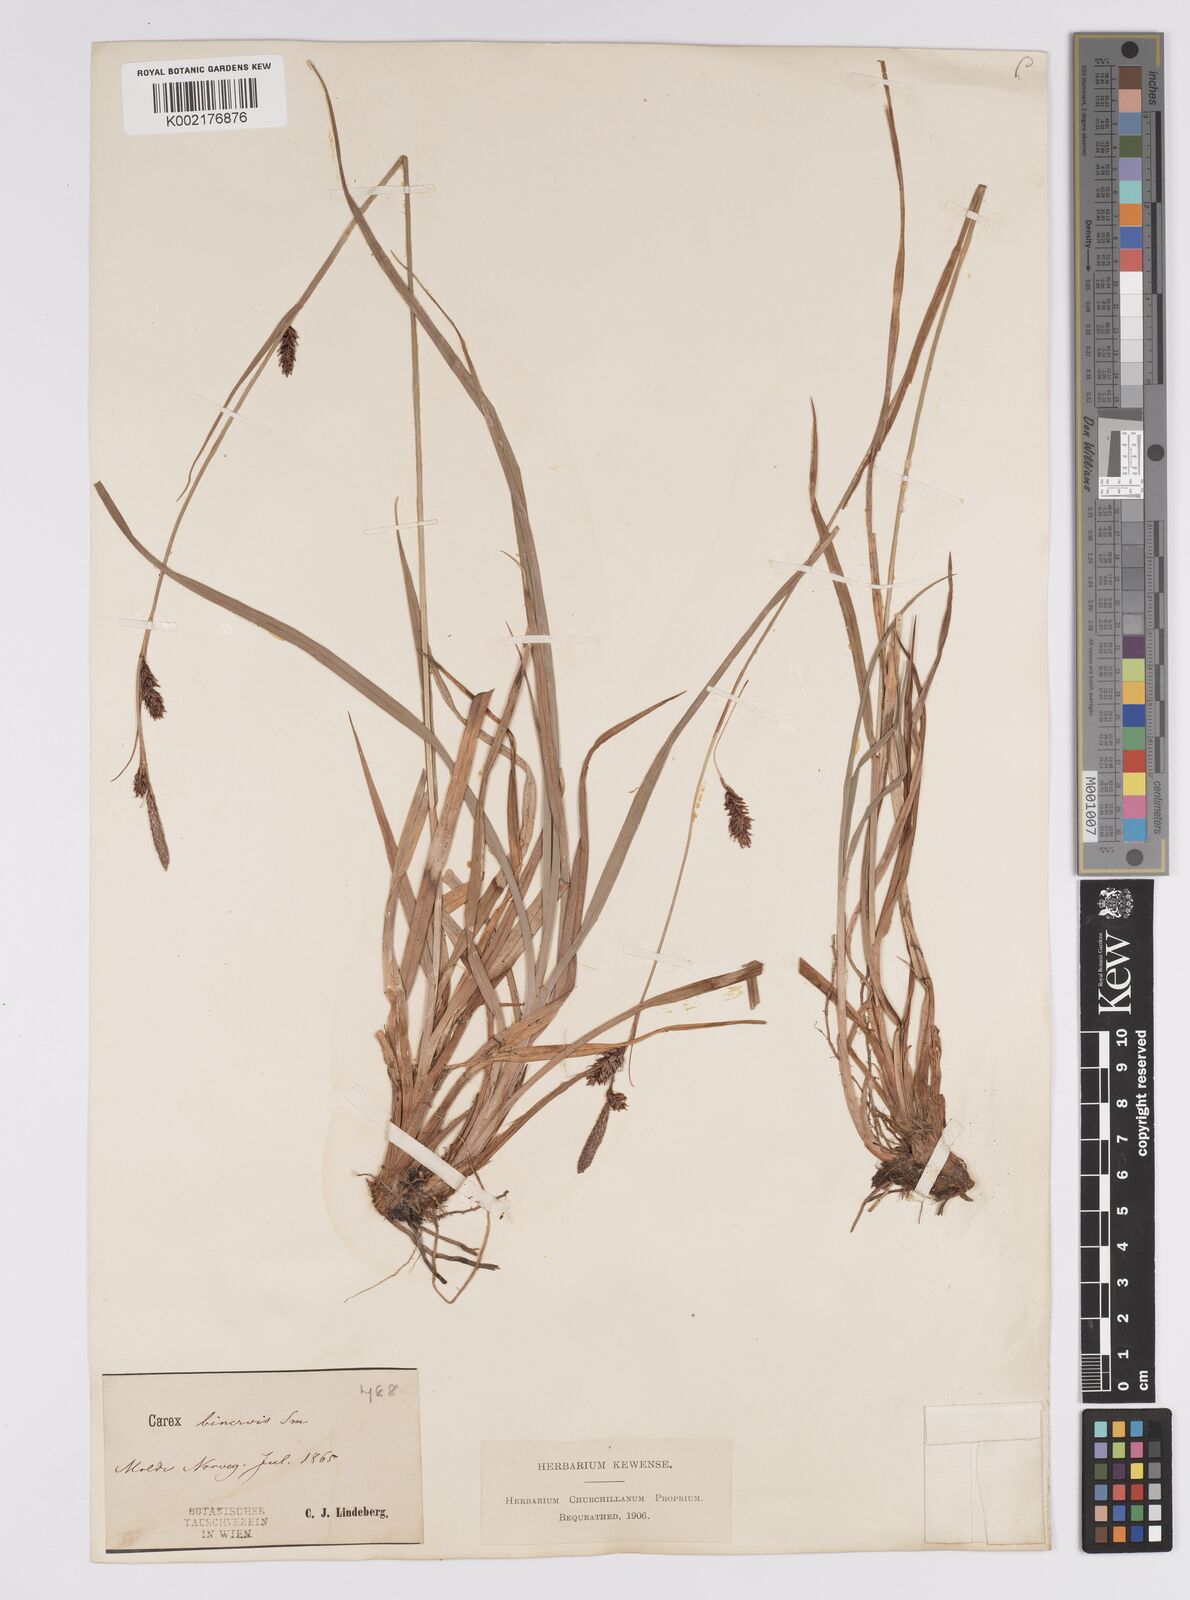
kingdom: Plantae
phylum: Tracheophyta
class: Liliopsida
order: Poales
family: Cyperaceae
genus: Carex
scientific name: Carex binervis
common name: Green-ribbed sedge
